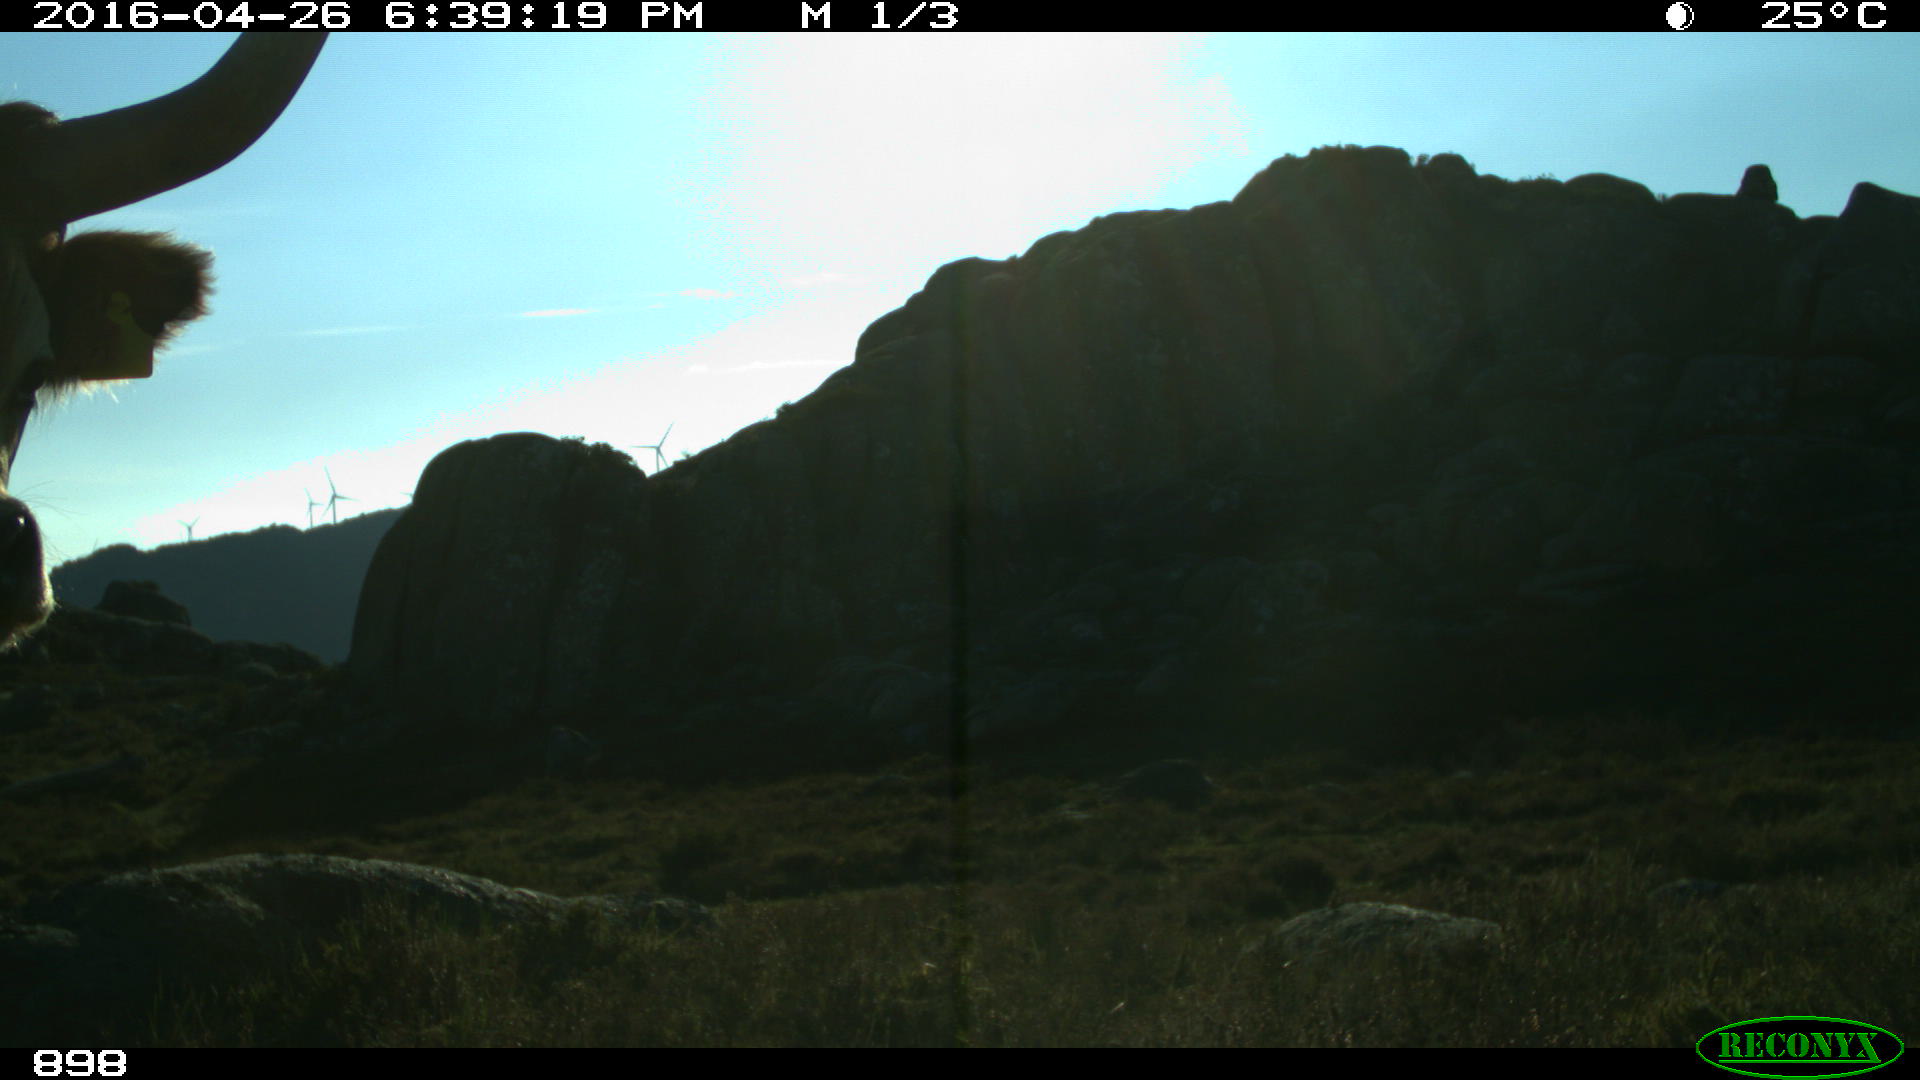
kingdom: Animalia
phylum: Chordata
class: Mammalia
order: Artiodactyla
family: Bovidae
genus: Bos
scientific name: Bos taurus
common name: Domesticated cattle
